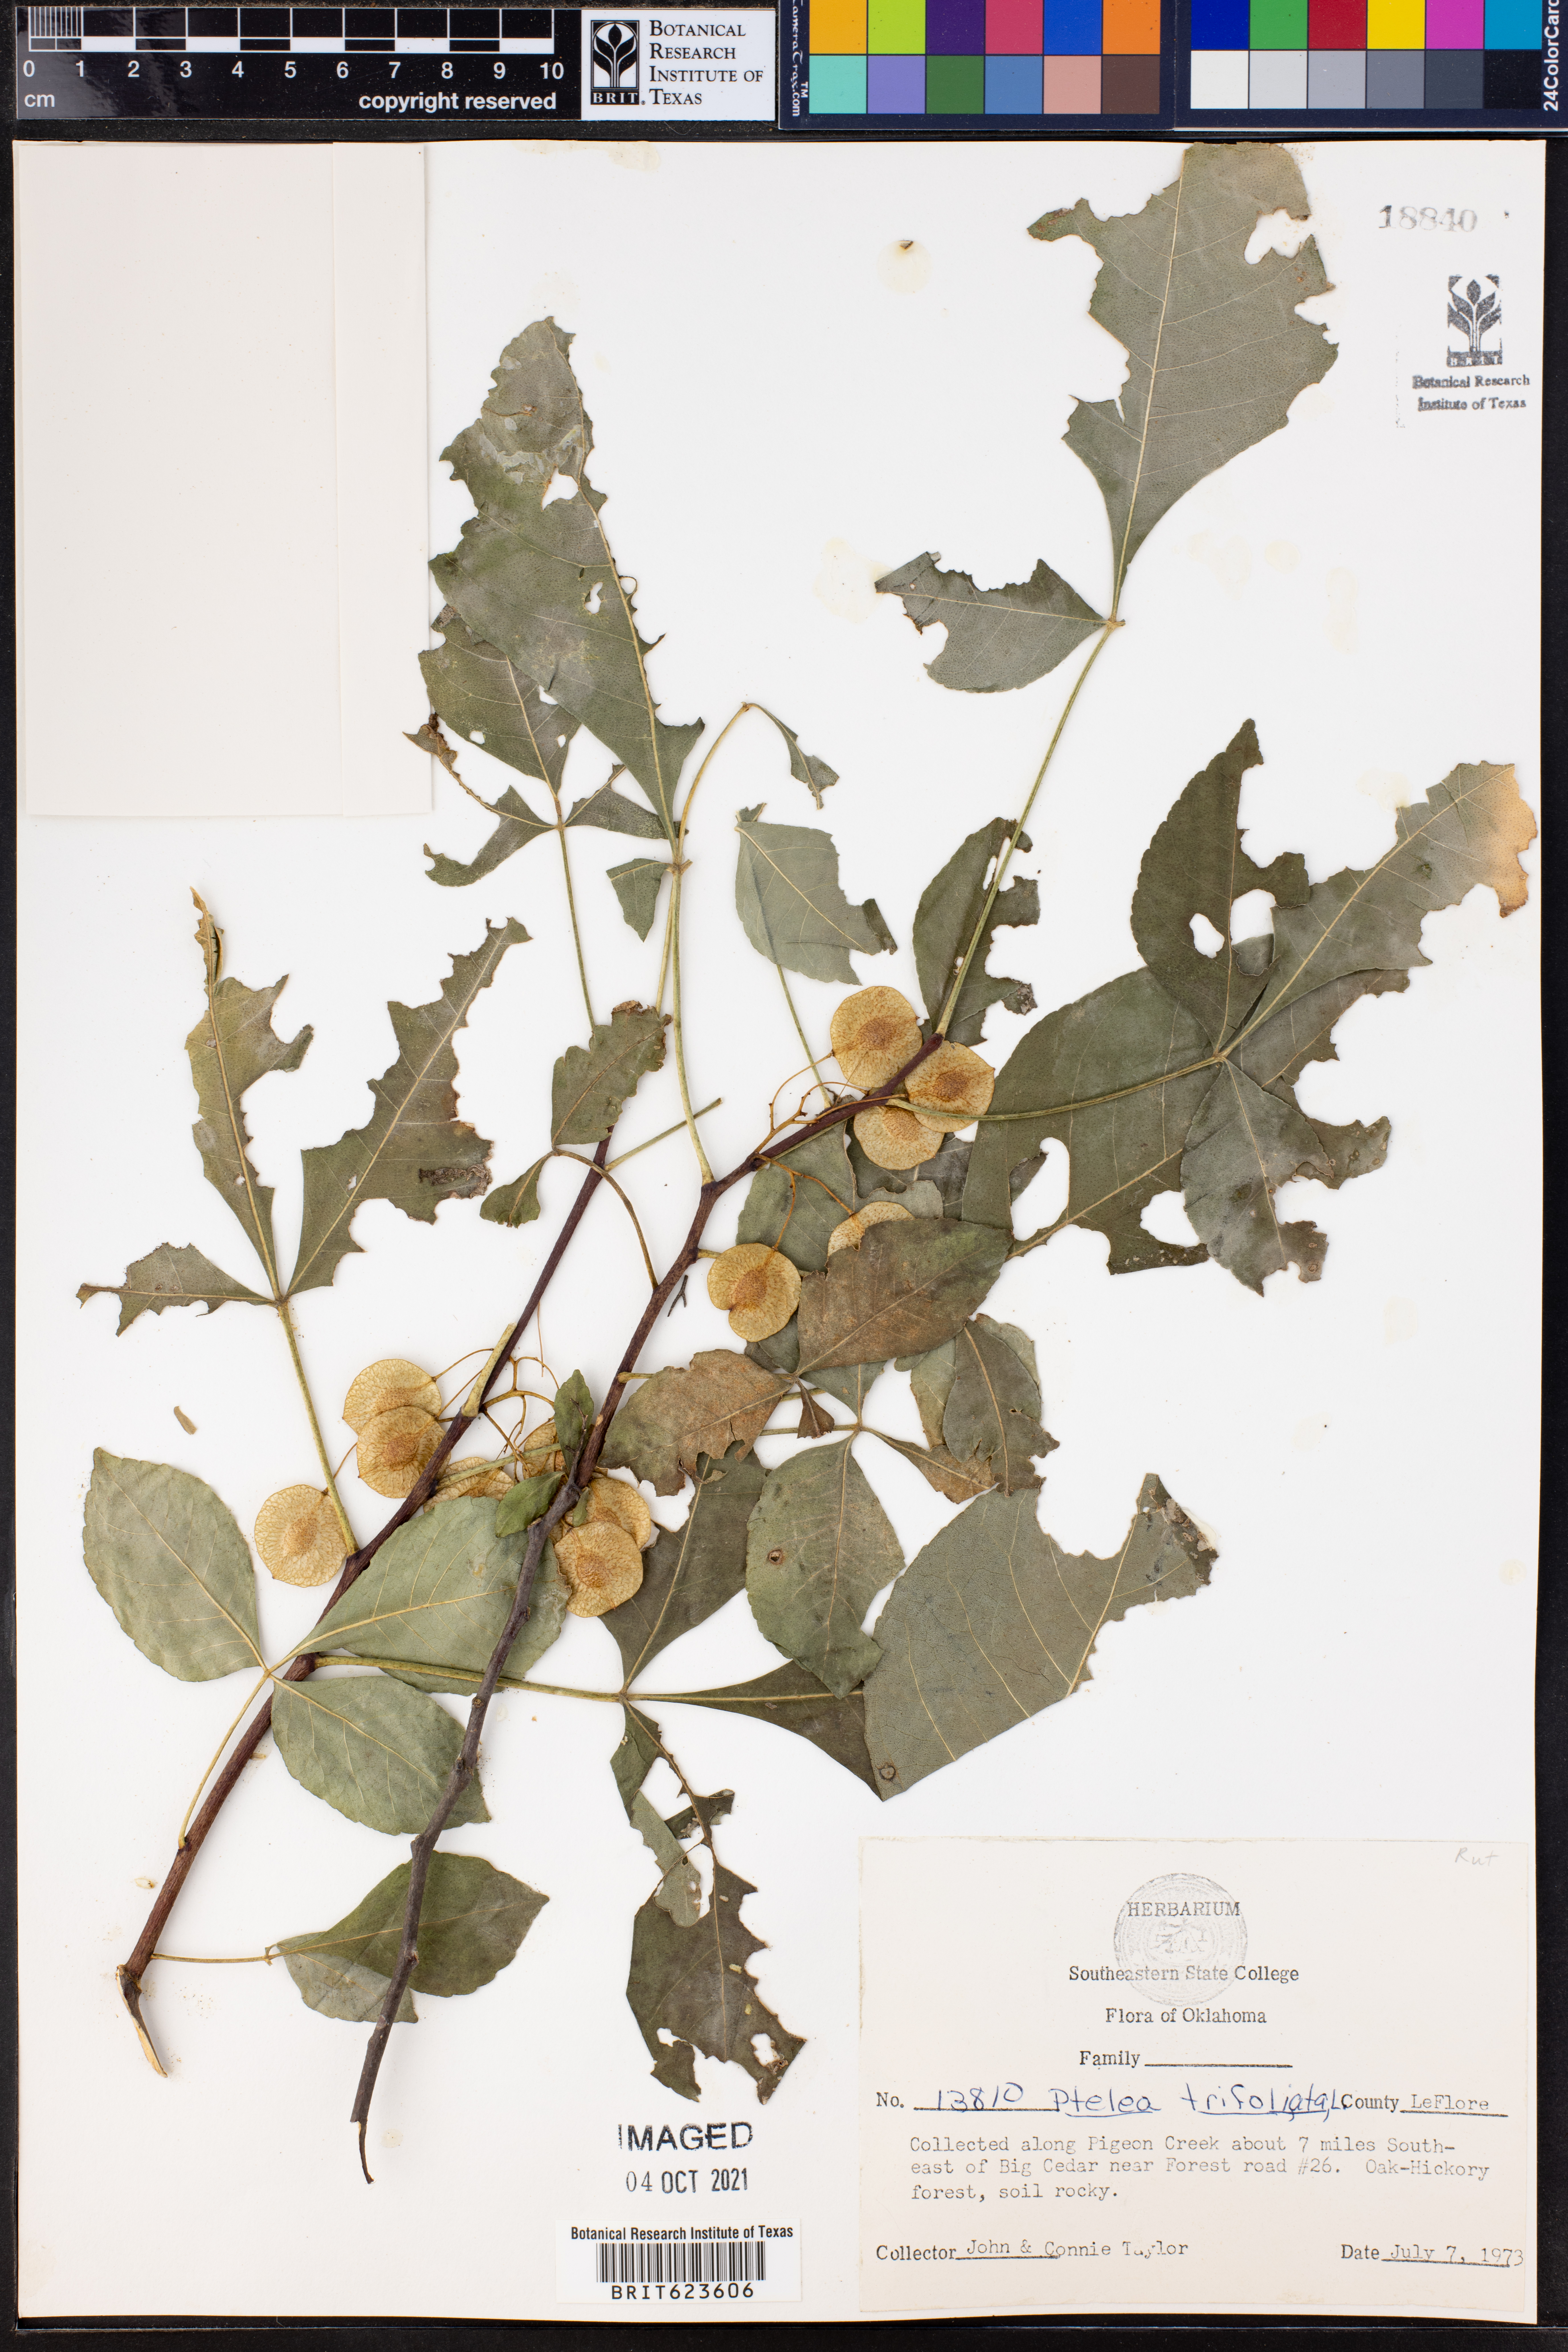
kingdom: Plantae
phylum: Tracheophyta
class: Magnoliopsida
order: Sapindales
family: Rutaceae
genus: Ptelea
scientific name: Ptelea trifoliata
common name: Common hop-tree
